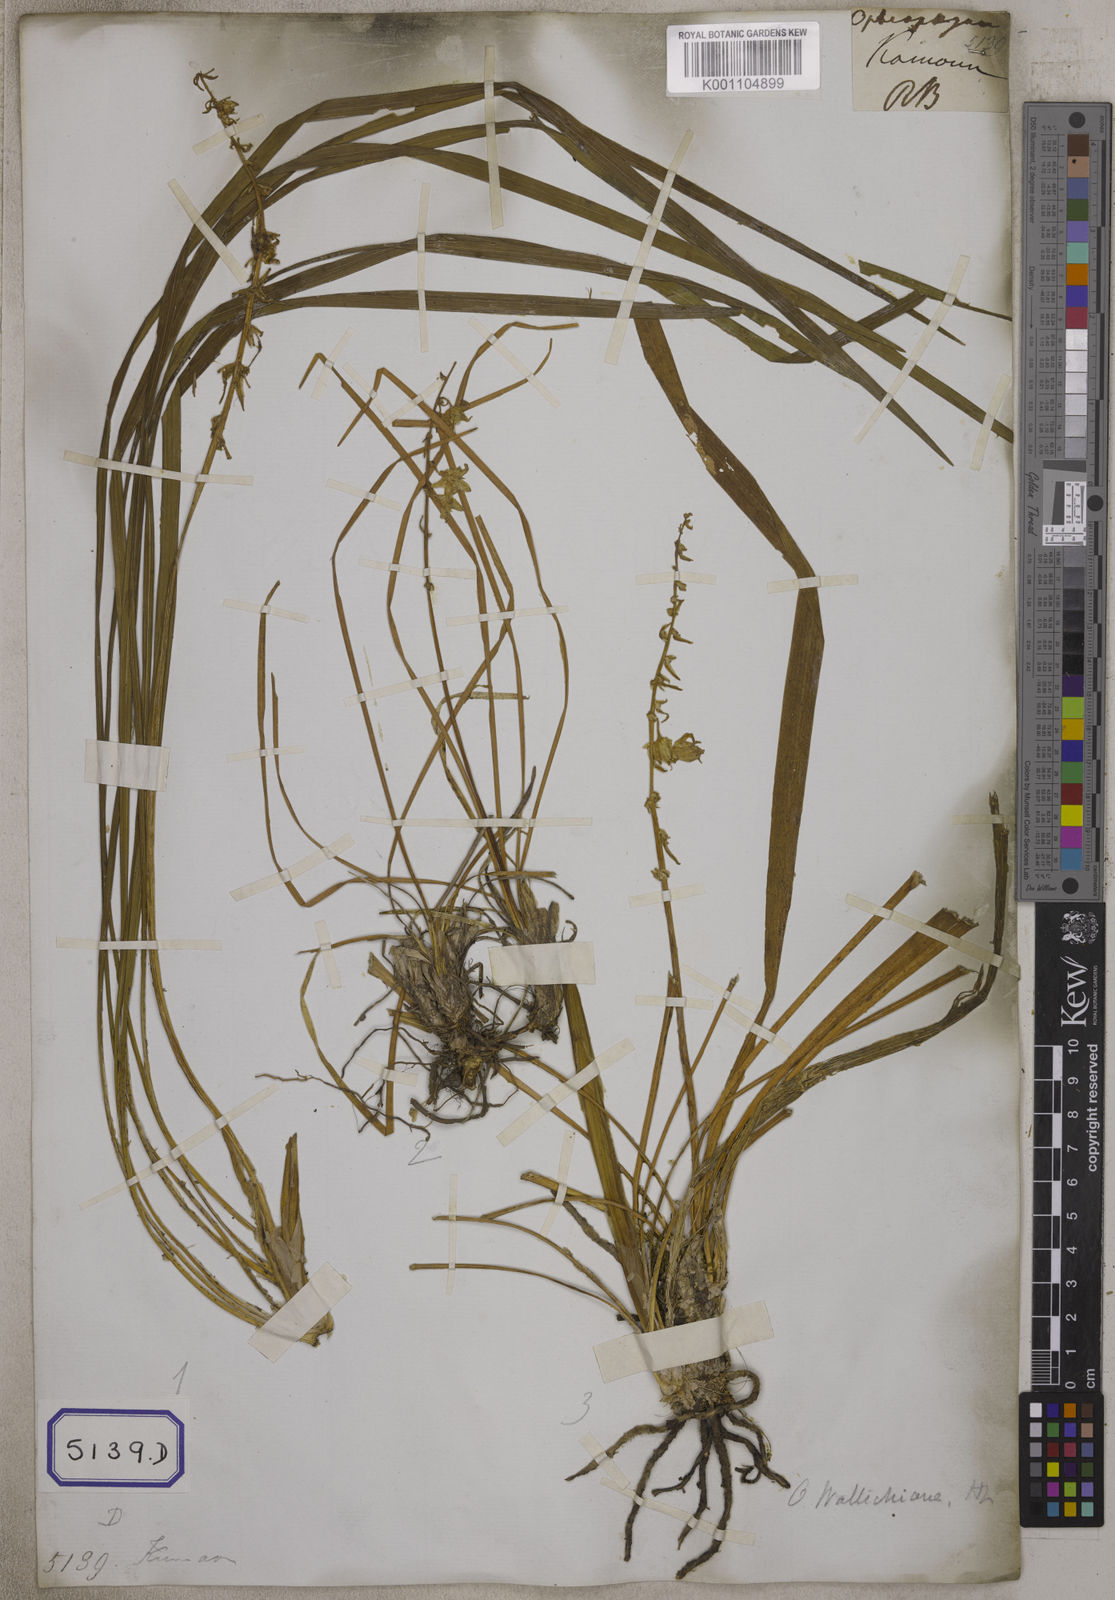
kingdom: Plantae
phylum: Tracheophyta
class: Liliopsida
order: Asparagales
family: Asparagaceae
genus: Ophiopogon
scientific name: Ophiopogon
